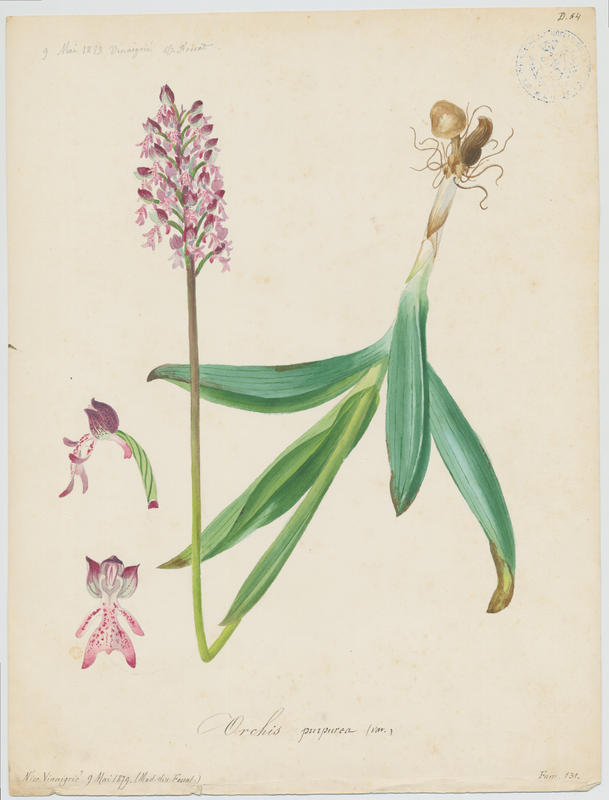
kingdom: Plantae
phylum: Tracheophyta
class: Liliopsida
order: Asparagales
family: Orchidaceae
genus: Orchis
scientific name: Orchis purpurea
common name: Lady orchid
